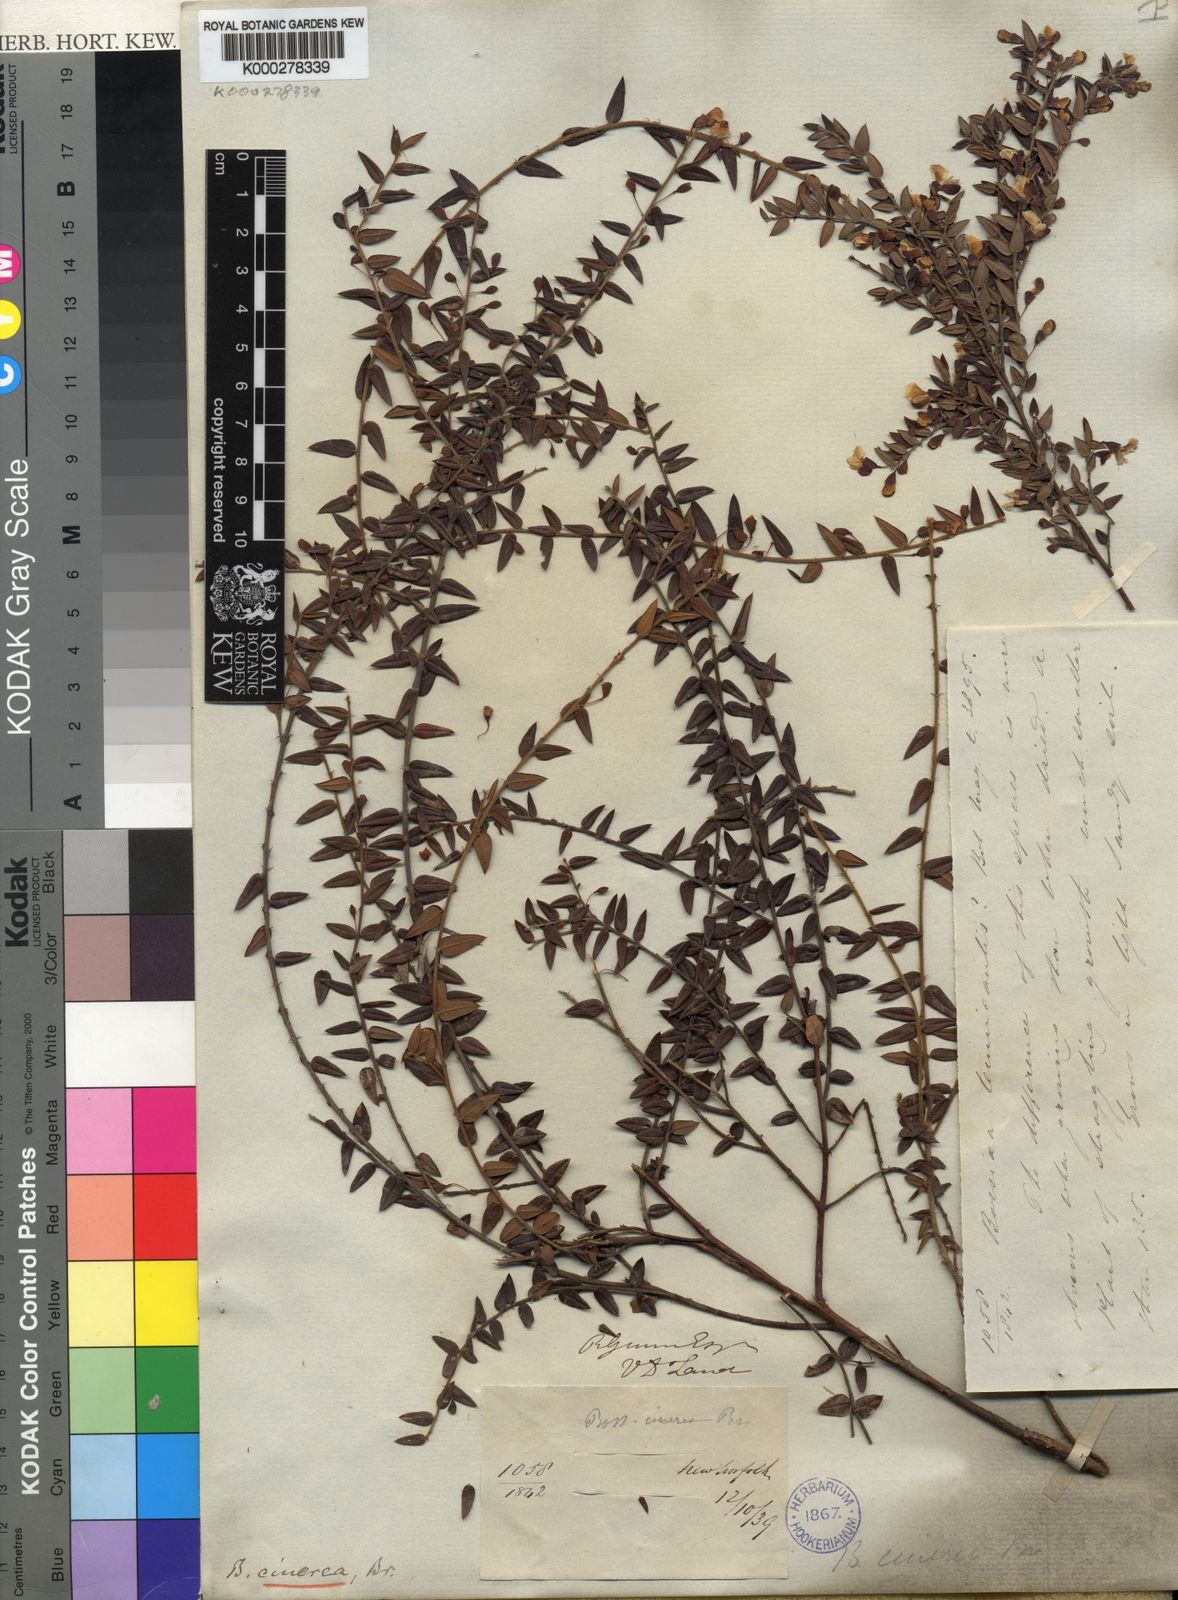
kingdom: Plantae
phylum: Tracheophyta
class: Magnoliopsida
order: Fabales
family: Fabaceae
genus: Bossiaea
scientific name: Bossiaea cinerea
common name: Showy bossiaea
